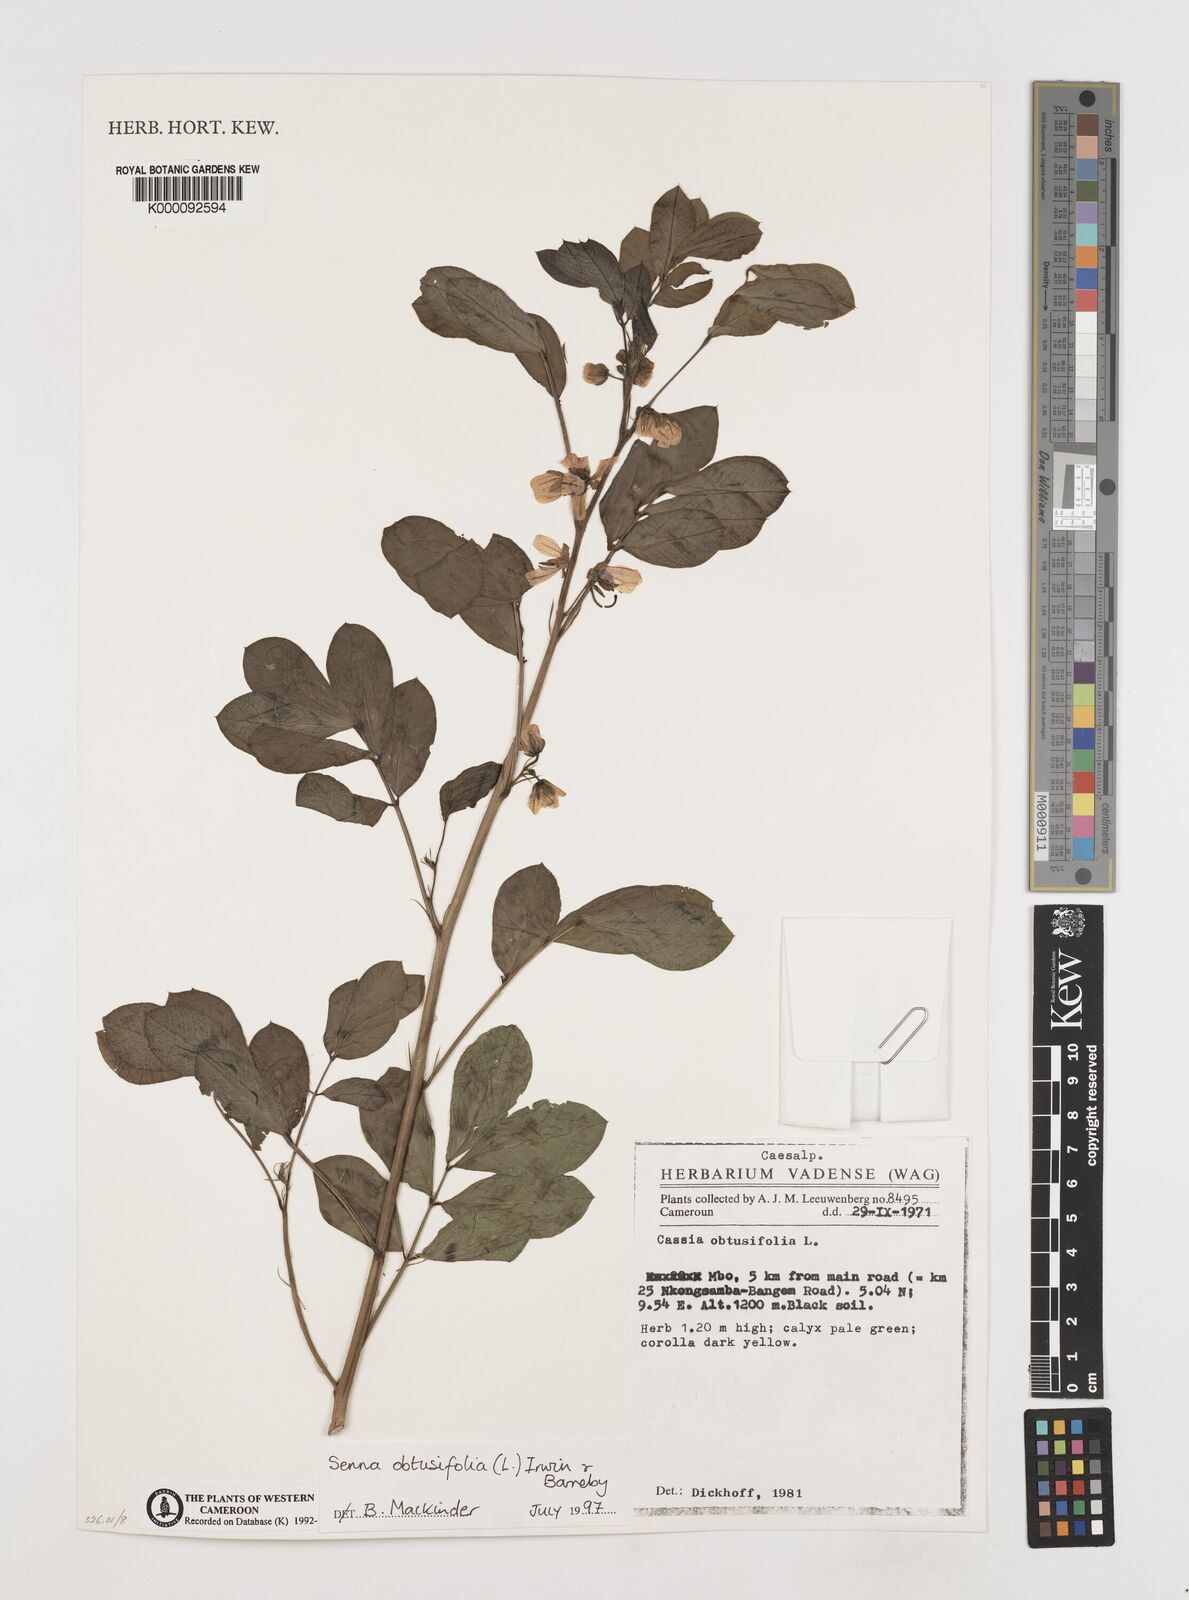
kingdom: Plantae
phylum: Tracheophyta
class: Magnoliopsida
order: Fabales
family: Fabaceae
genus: Senna
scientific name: Senna obtusifolia
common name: Java-bean
